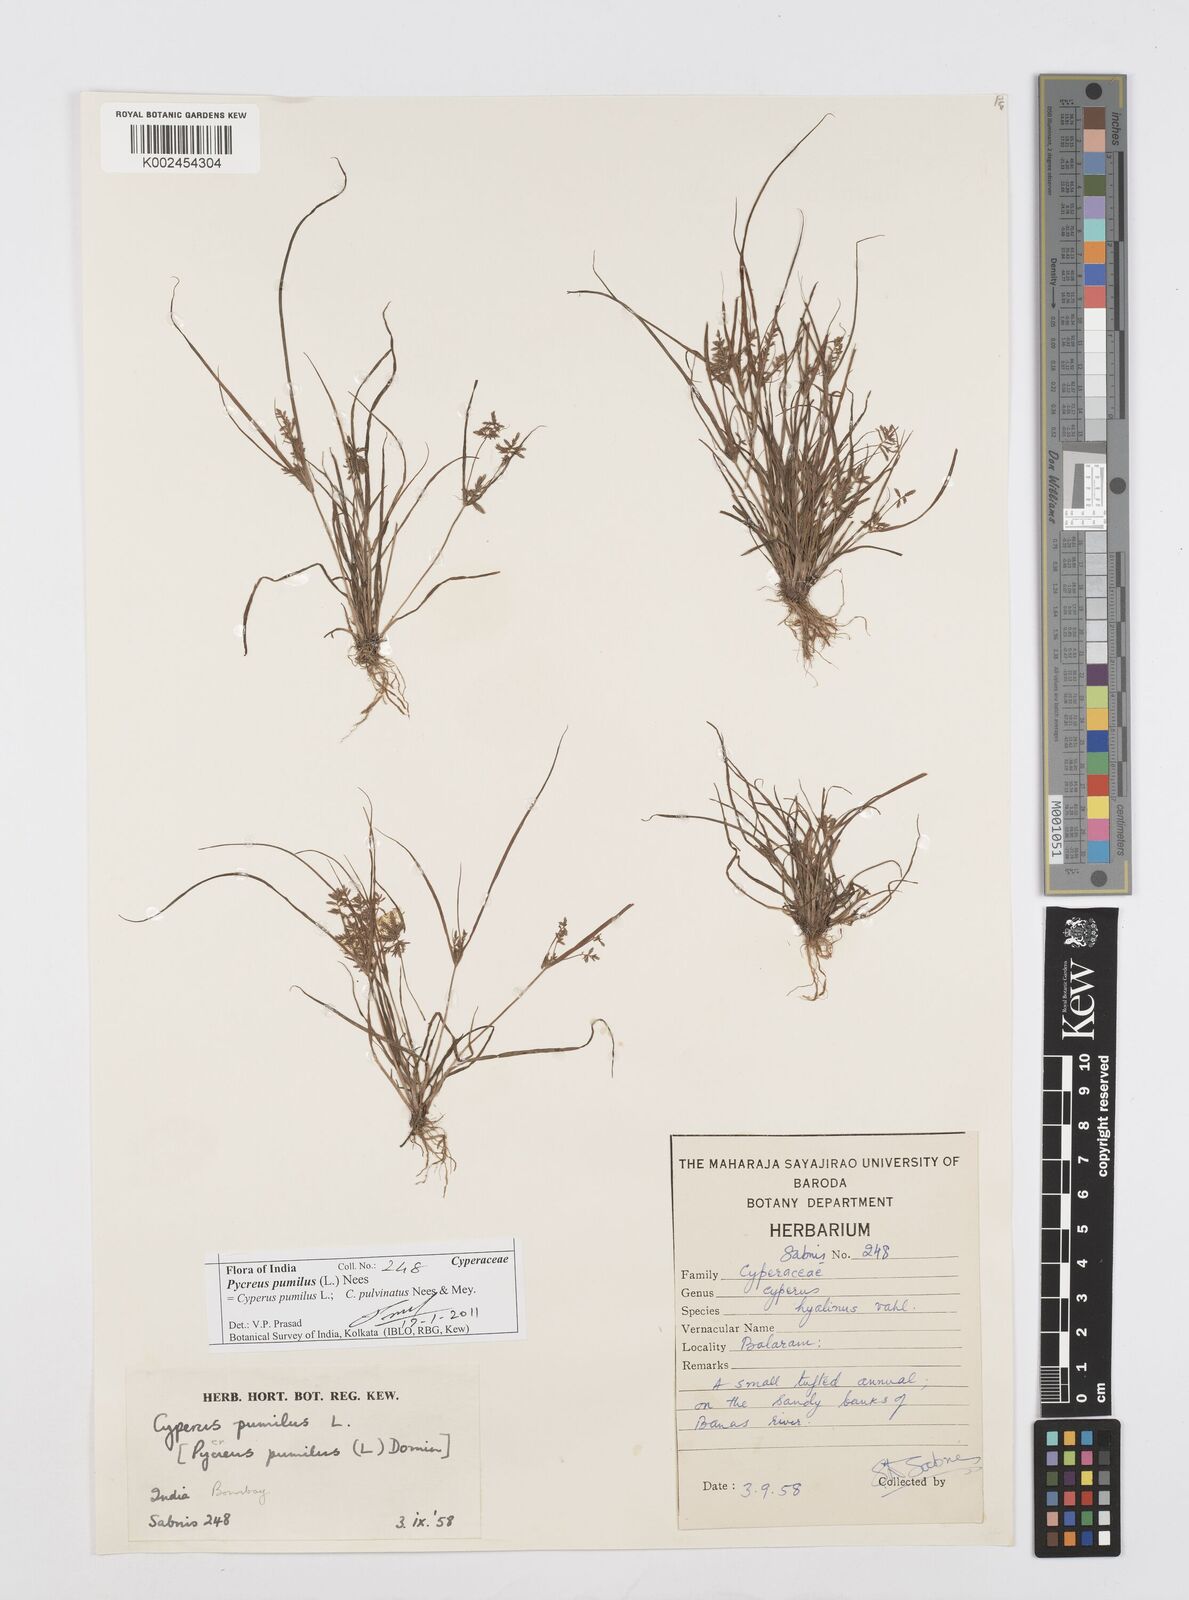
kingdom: Plantae
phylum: Tracheophyta
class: Liliopsida
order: Poales
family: Cyperaceae
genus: Cyperus
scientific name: Cyperus pumilus
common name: Low flatsedge
